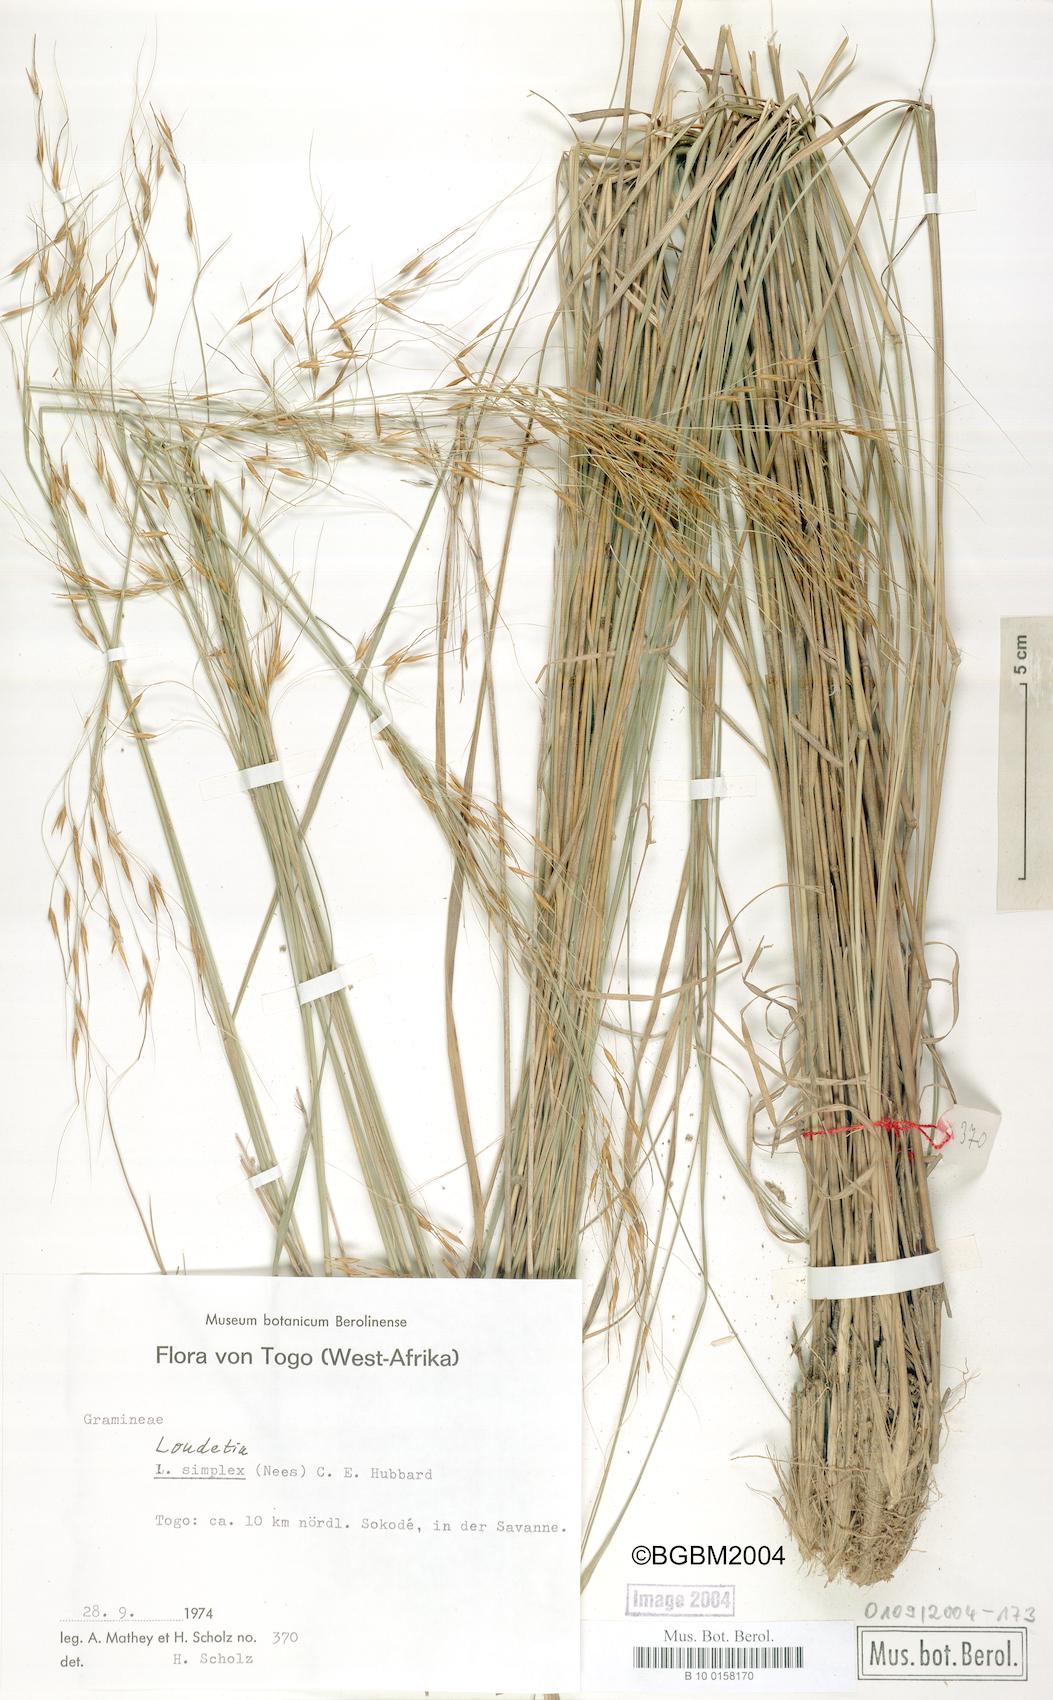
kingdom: Plantae
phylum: Tracheophyta
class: Liliopsida
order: Poales
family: Poaceae
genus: Loudetia
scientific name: Loudetia simplex
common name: Common russet grass
